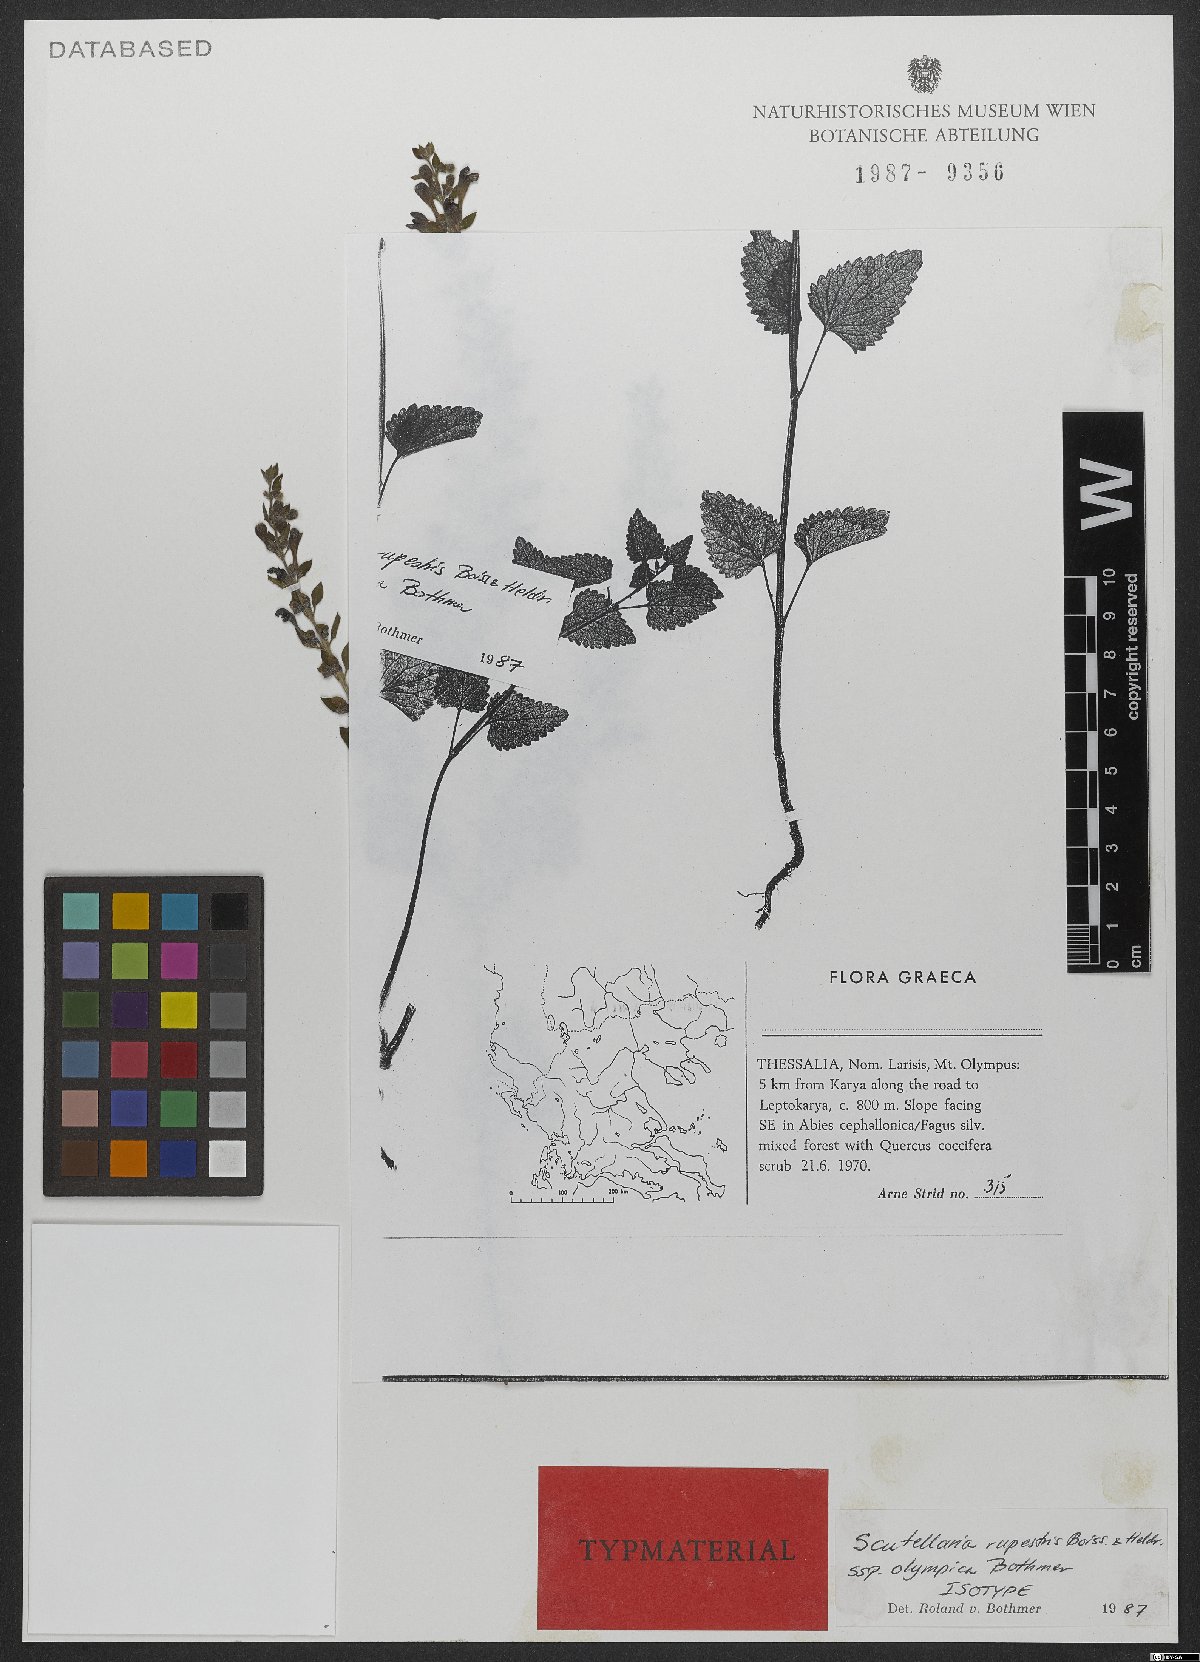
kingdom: Plantae
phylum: Tracheophyta
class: Magnoliopsida
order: Lamiales
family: Lamiaceae
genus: Scutellaria
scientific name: Scutellaria rupestris
